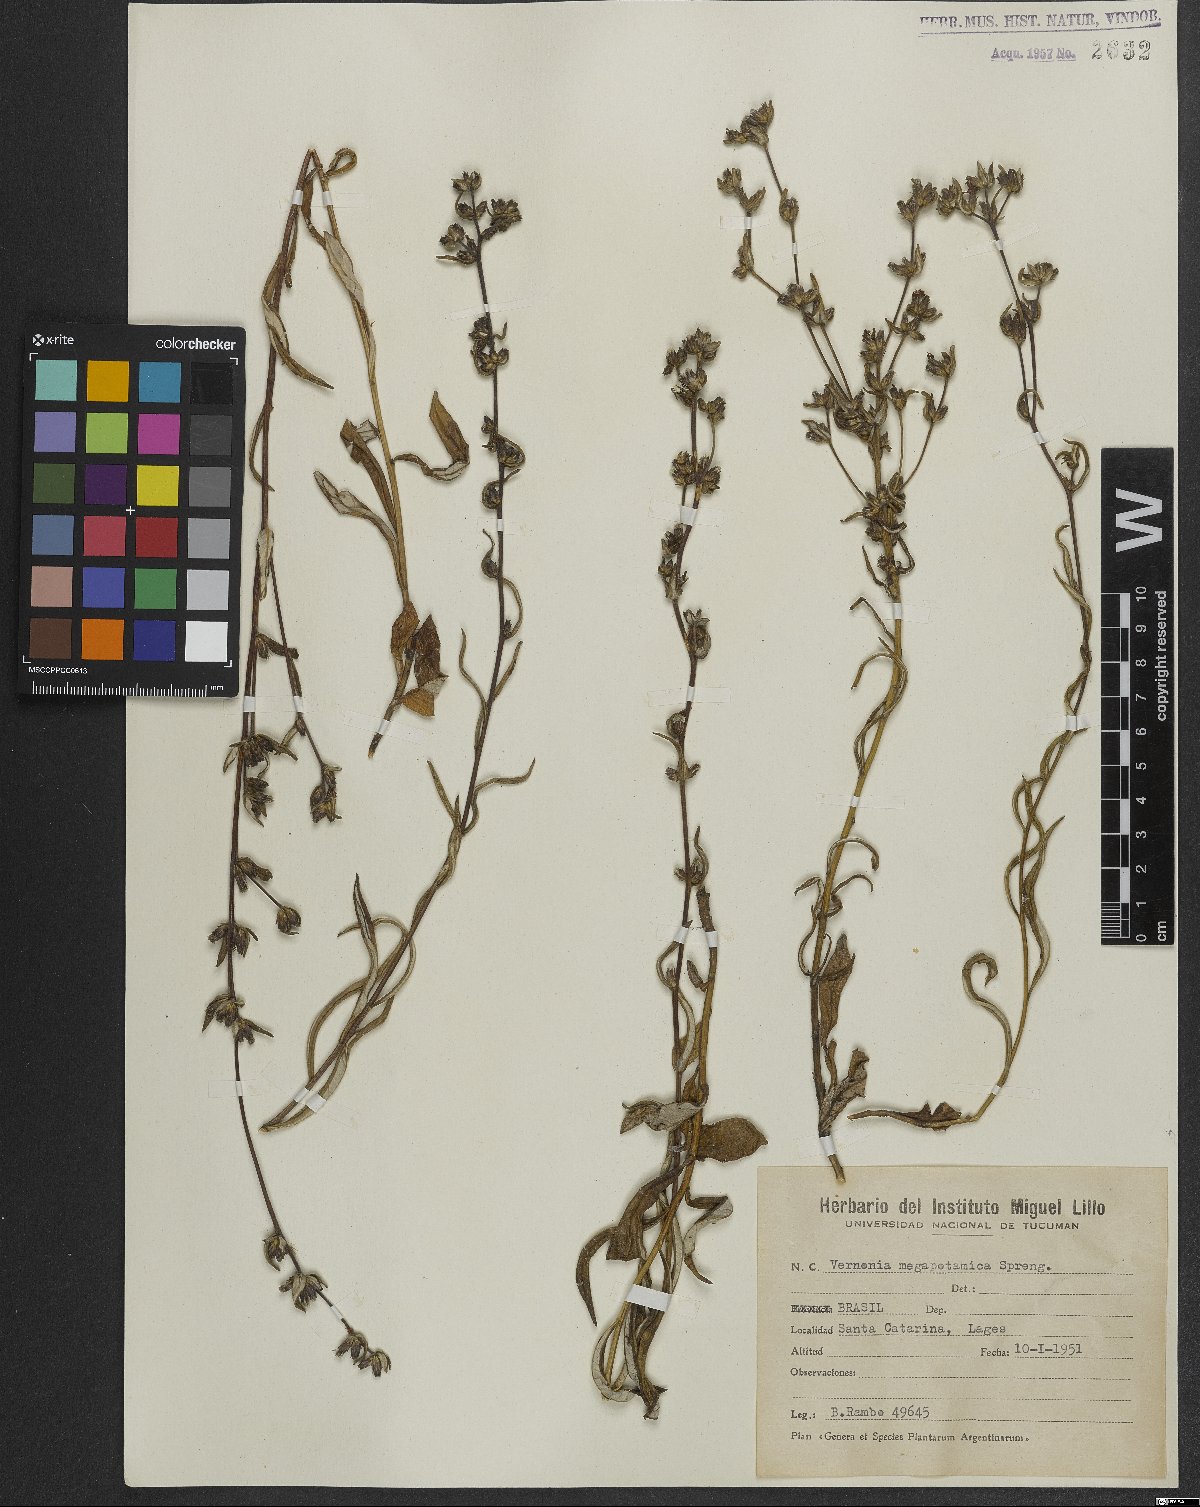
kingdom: Plantae
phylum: Tracheophyta
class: Magnoliopsida
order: Asterales
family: Asteraceae
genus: Stenocephalum
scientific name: Stenocephalum megapotamicum
